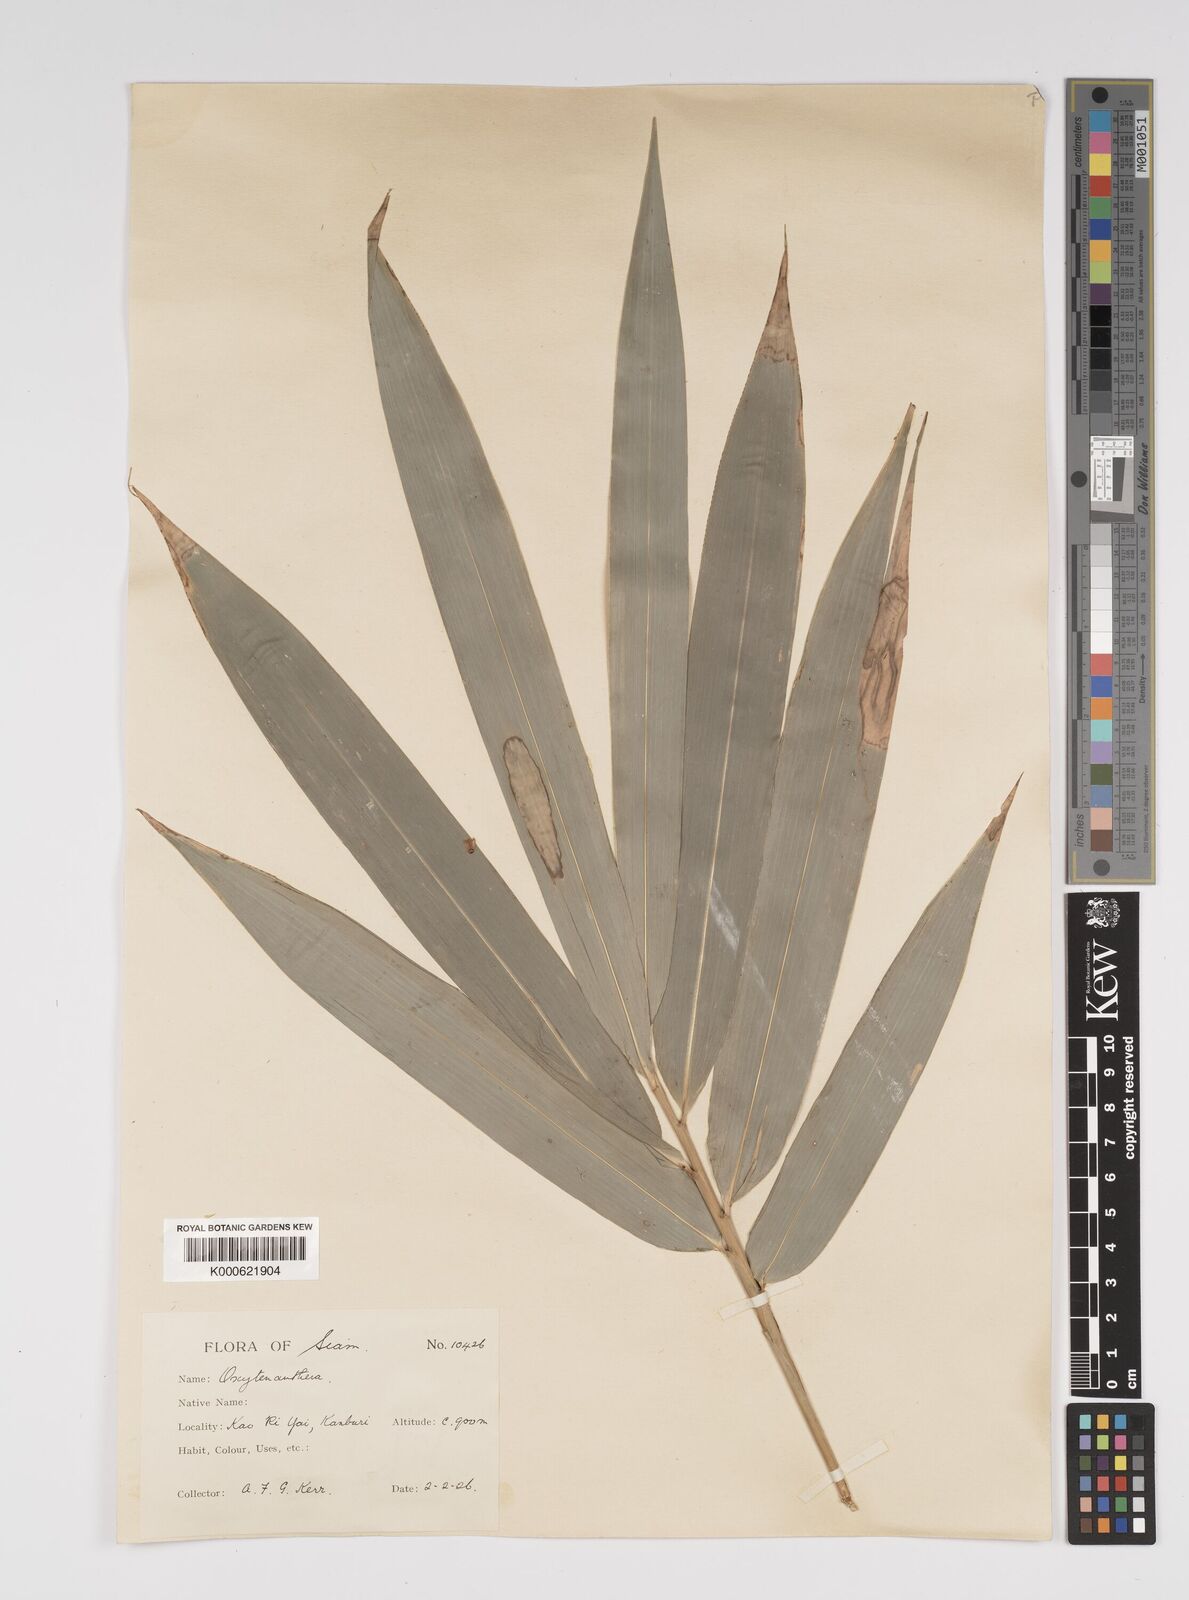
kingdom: Plantae
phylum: Tracheophyta
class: Liliopsida
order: Poales
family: Poaceae
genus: Bambusa
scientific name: Bambusa
